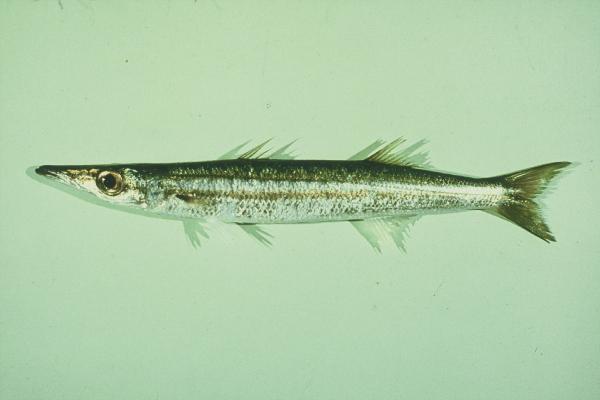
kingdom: Animalia
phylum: Chordata
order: Perciformes
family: Sphyraenidae
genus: Sphyraena
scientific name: Sphyraena
